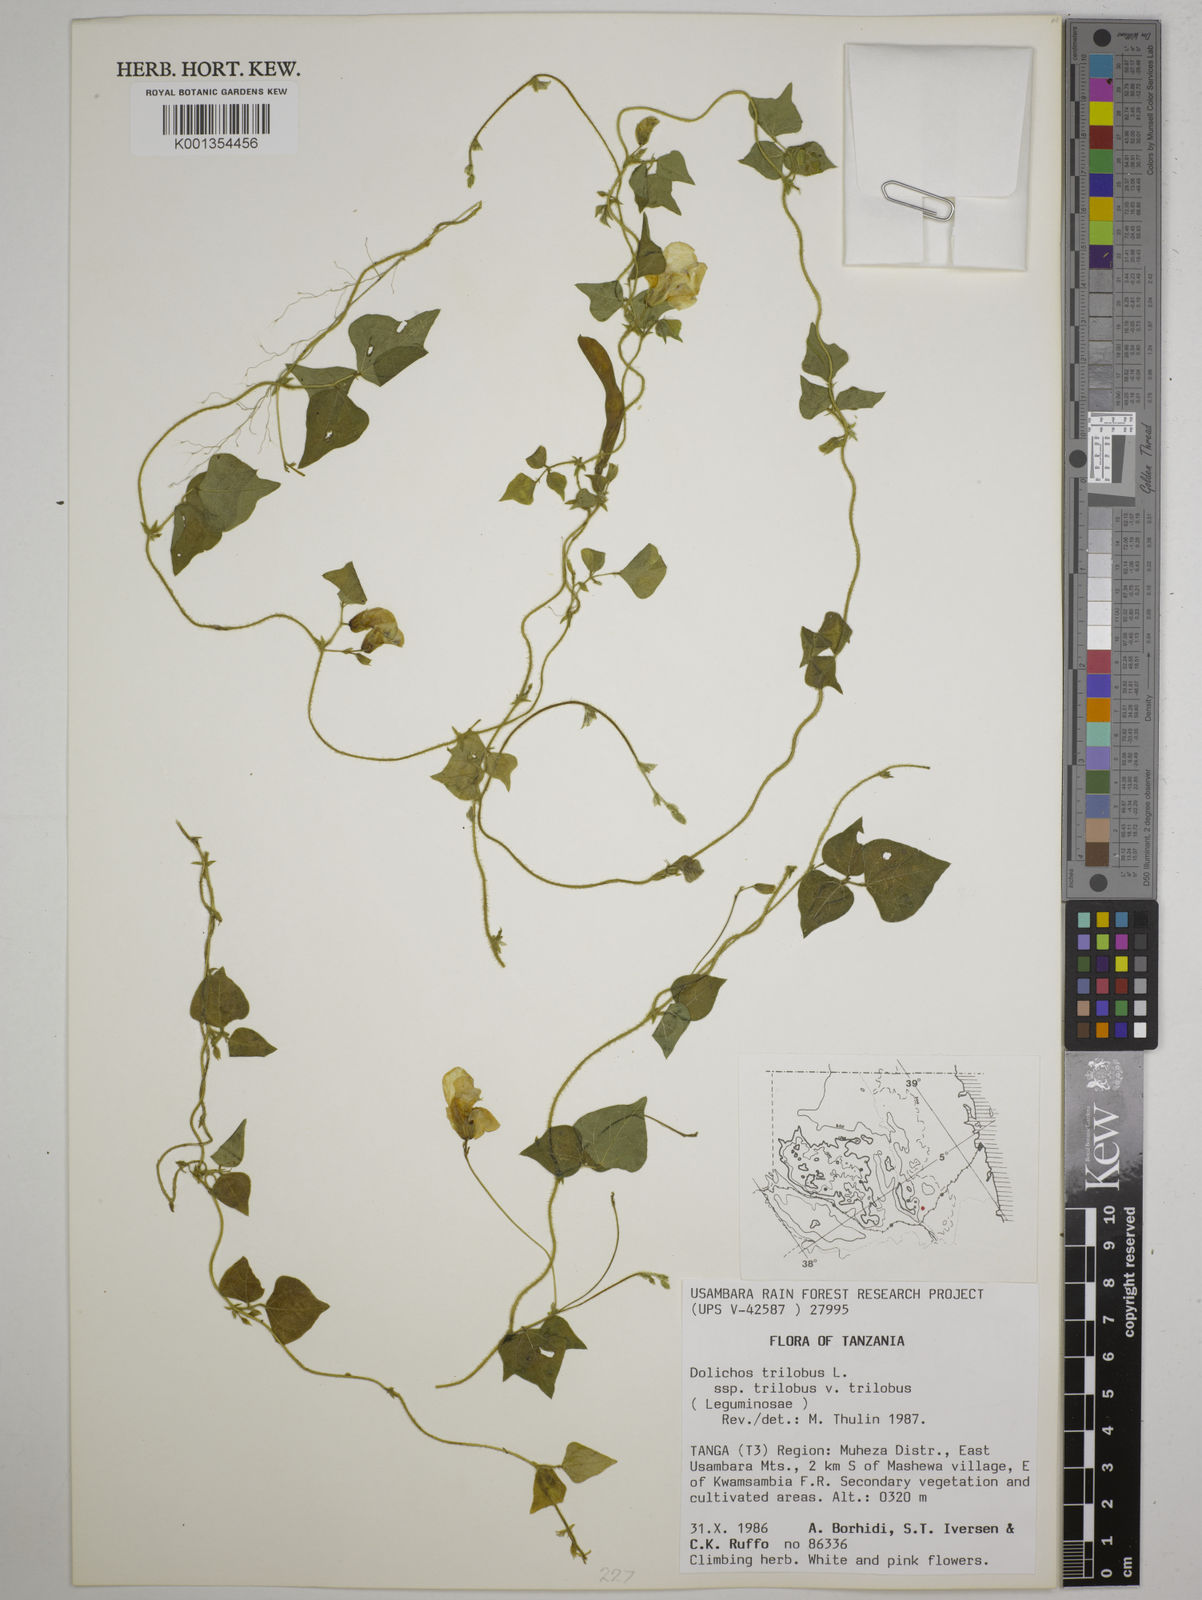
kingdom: Plantae
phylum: Tracheophyta
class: Magnoliopsida
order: Fabales
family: Fabaceae
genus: Dolichos
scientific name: Dolichos
